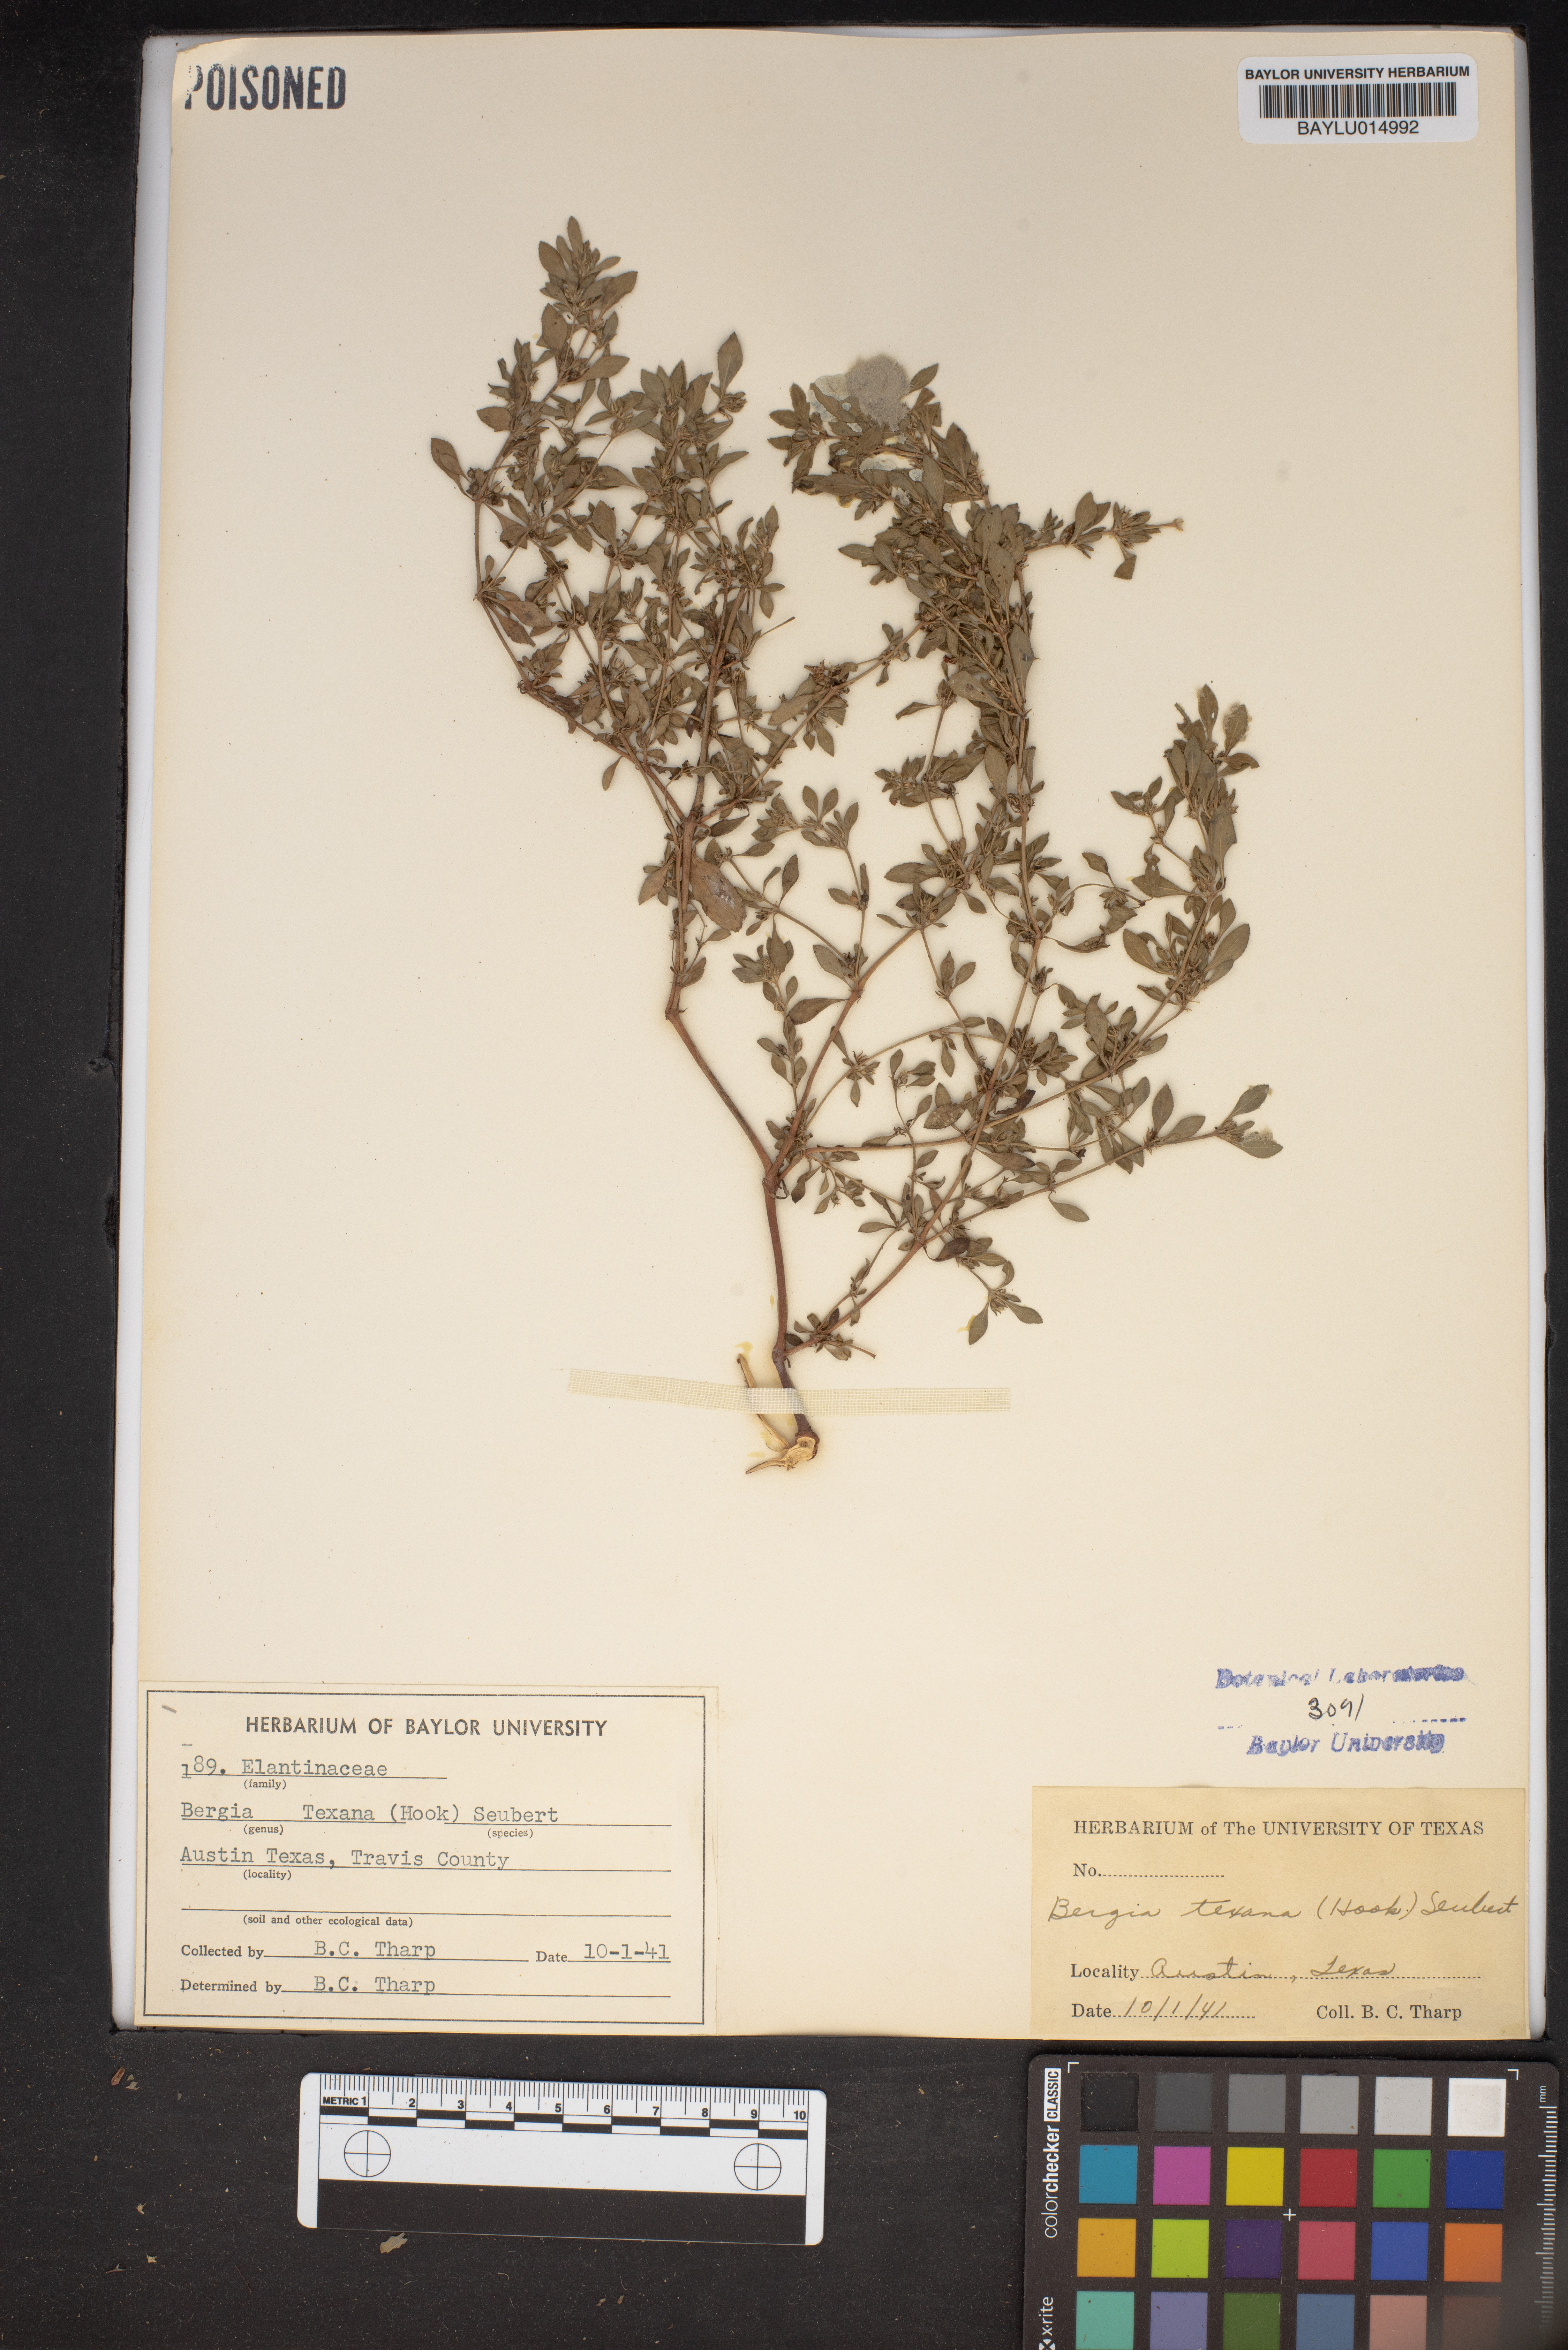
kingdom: Plantae
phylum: Tracheophyta
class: Magnoliopsida
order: Malpighiales
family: Elatinaceae
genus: Bergia
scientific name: Bergia texana
